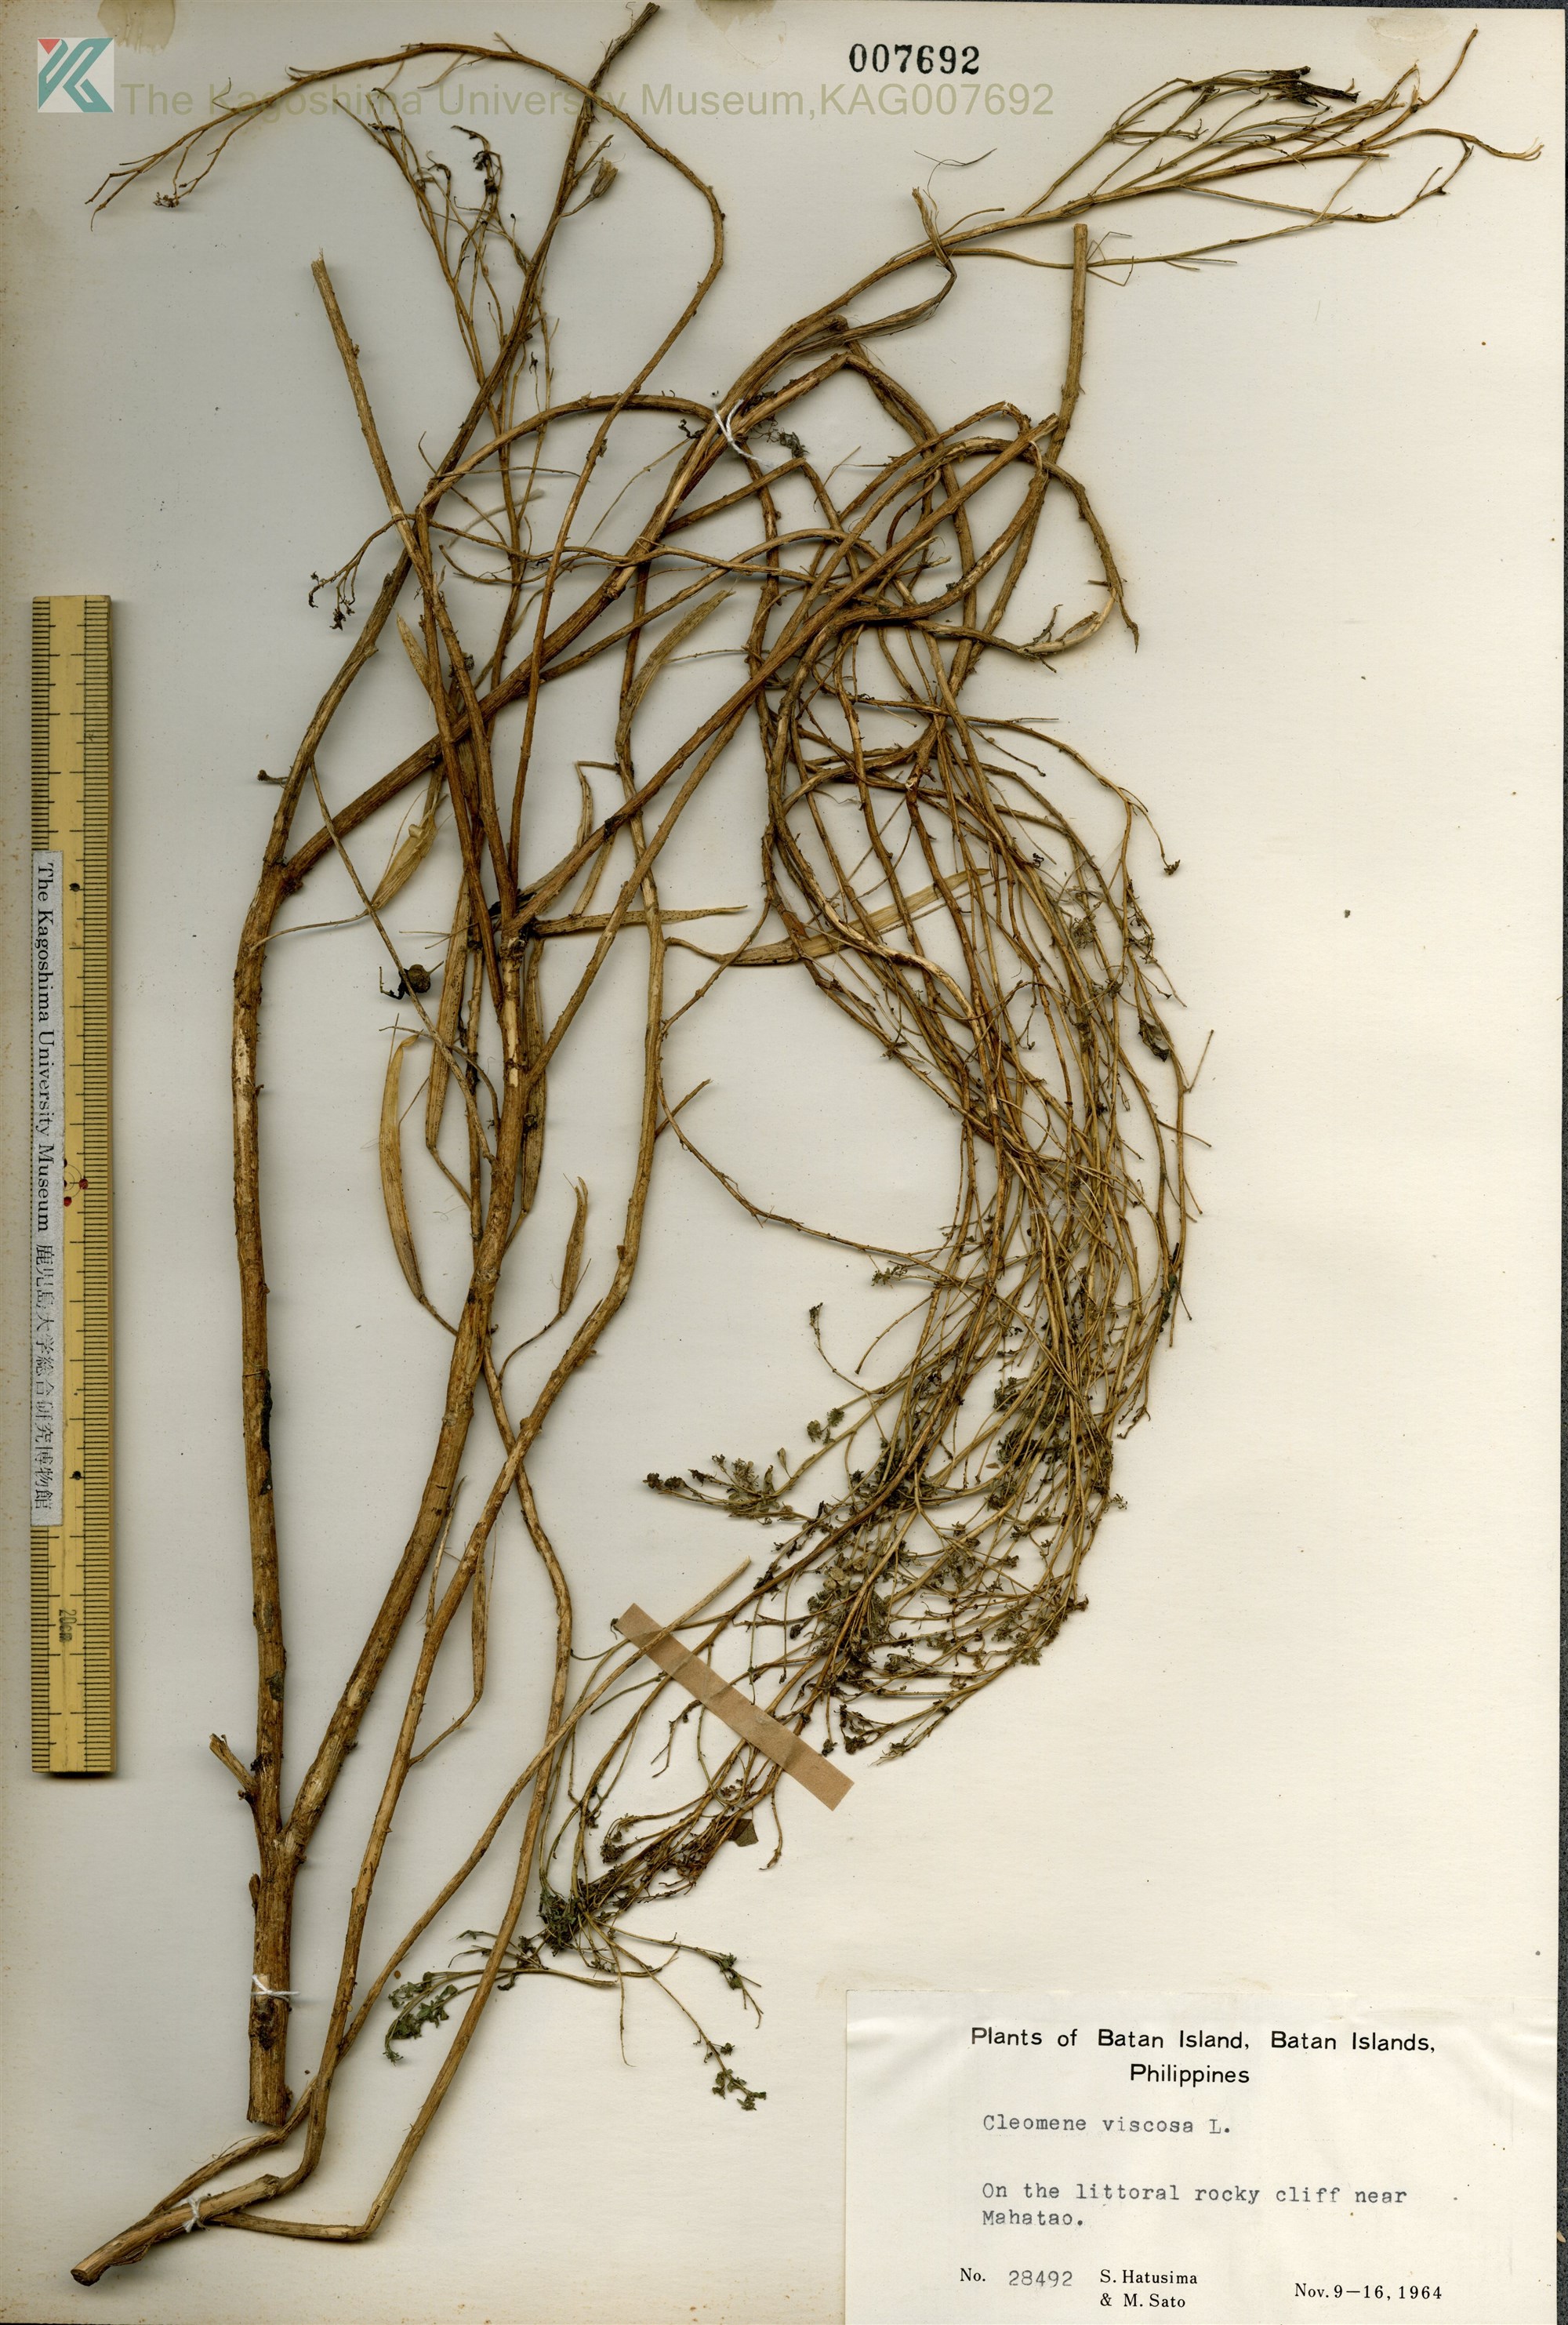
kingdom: Plantae
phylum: Tracheophyta
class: Magnoliopsida
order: Brassicales
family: Cleomaceae
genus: Arivela
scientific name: Arivela viscosa
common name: Asian spiderflower
